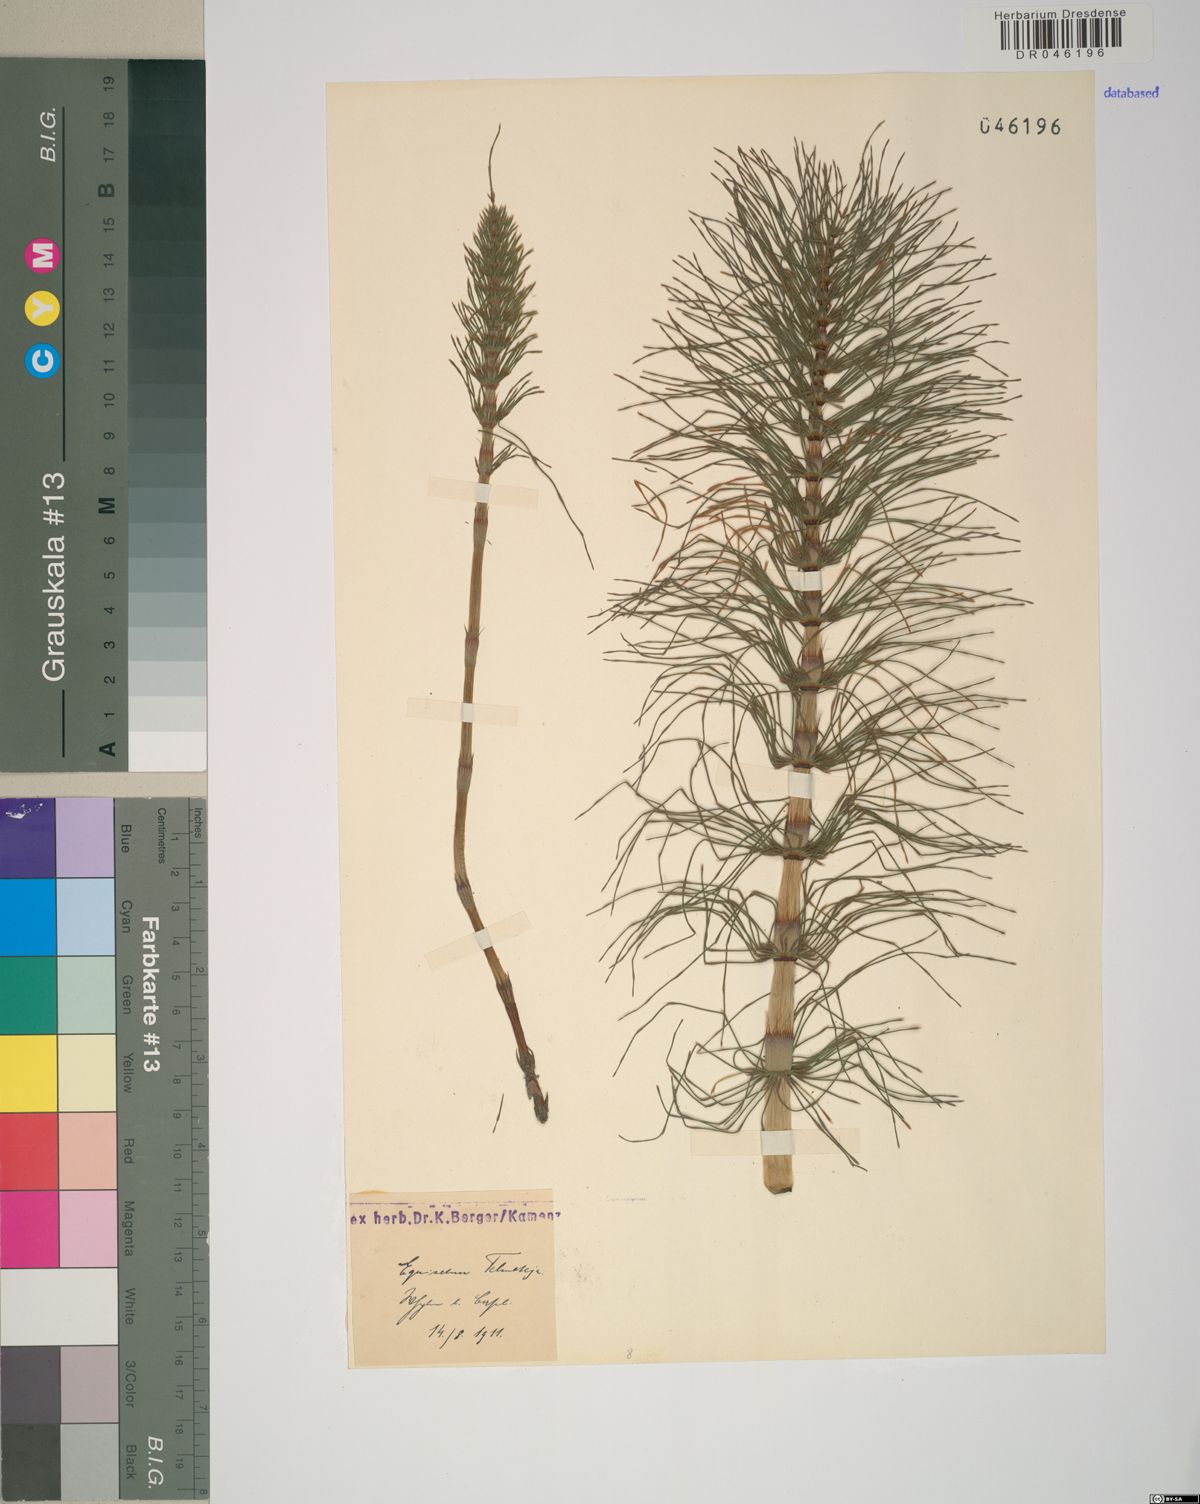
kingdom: Plantae
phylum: Tracheophyta
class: Polypodiopsida
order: Equisetales
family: Equisetaceae
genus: Equisetum
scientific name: Equisetum telmateia
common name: Great horsetail
